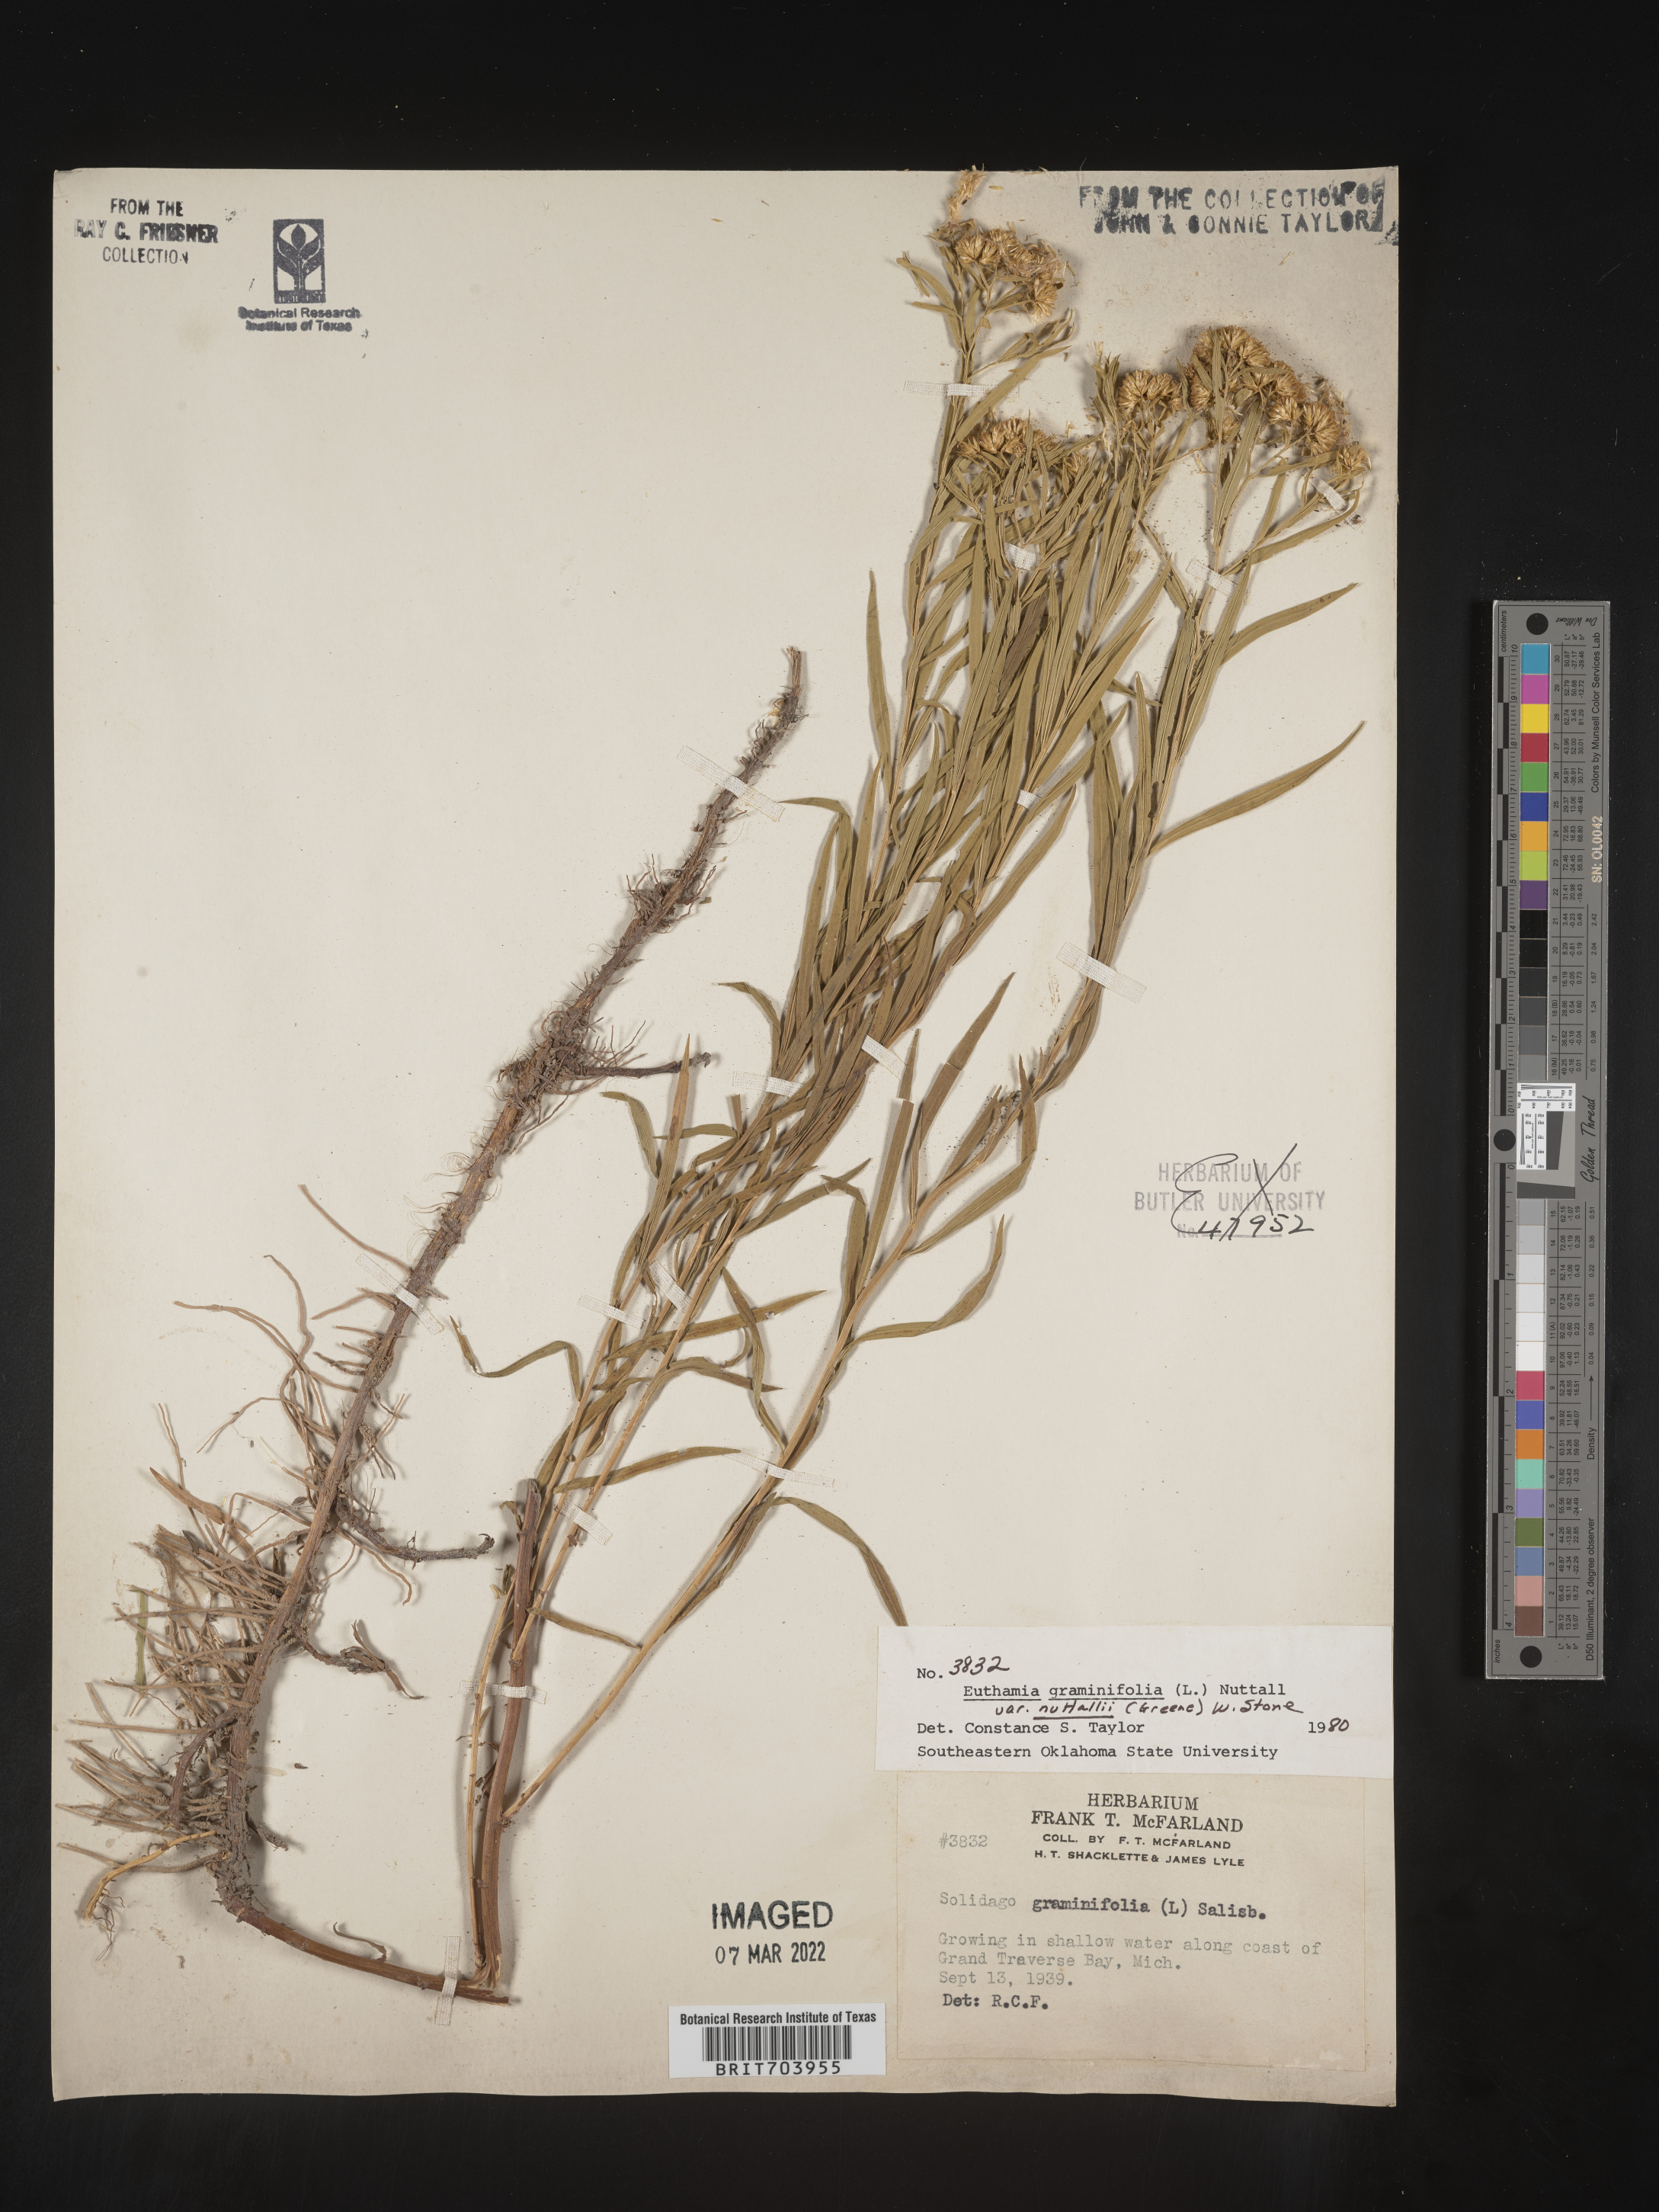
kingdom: Plantae
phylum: Tracheophyta
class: Magnoliopsida
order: Asterales
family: Asteraceae
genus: Euthamia
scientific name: Euthamia graminifolia
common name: Common goldentop
